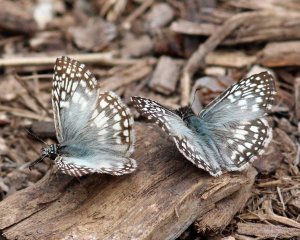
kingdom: Animalia
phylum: Arthropoda
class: Insecta
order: Lepidoptera
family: Hesperiidae
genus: Pyrgus
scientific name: Pyrgus oileus
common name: Tropical Checkered-Skipper
